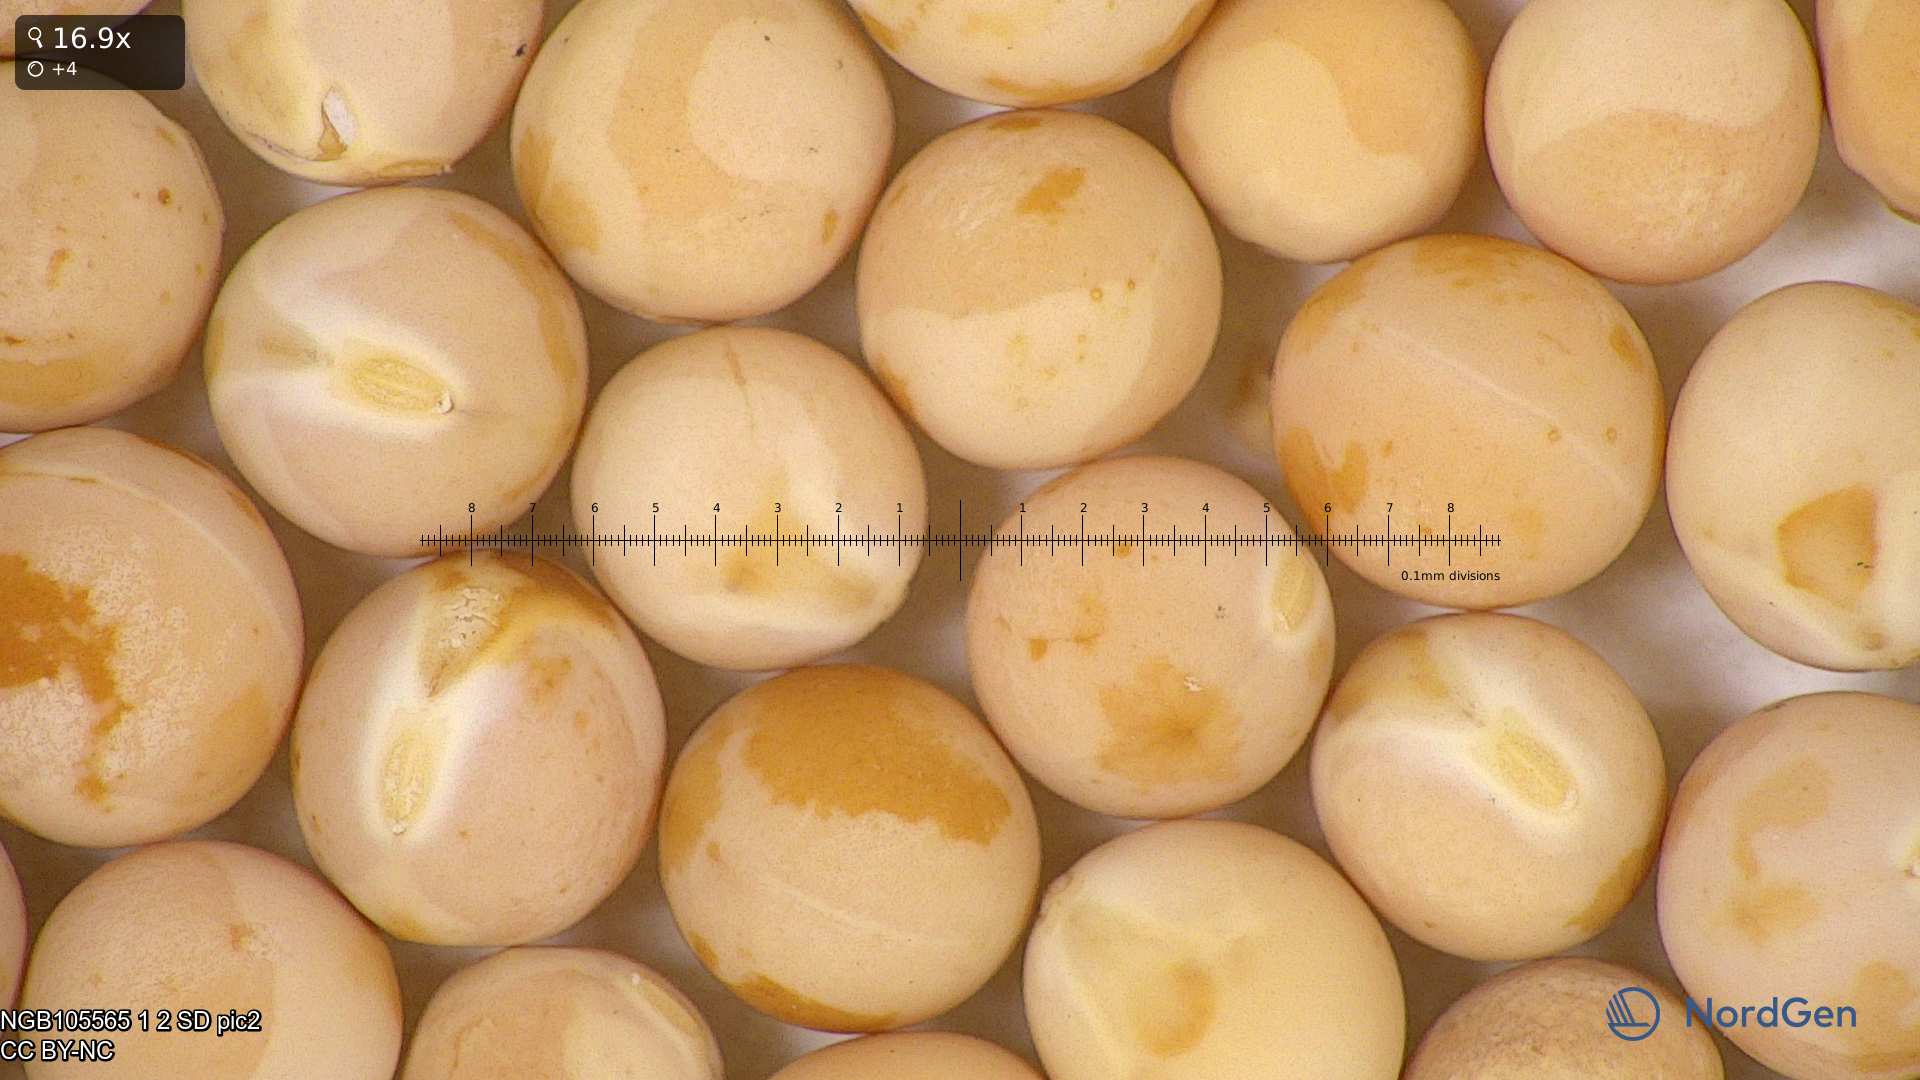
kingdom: Plantae
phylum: Tracheophyta
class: Magnoliopsida
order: Fabales
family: Fabaceae
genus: Lathyrus
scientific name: Lathyrus oleraceus
